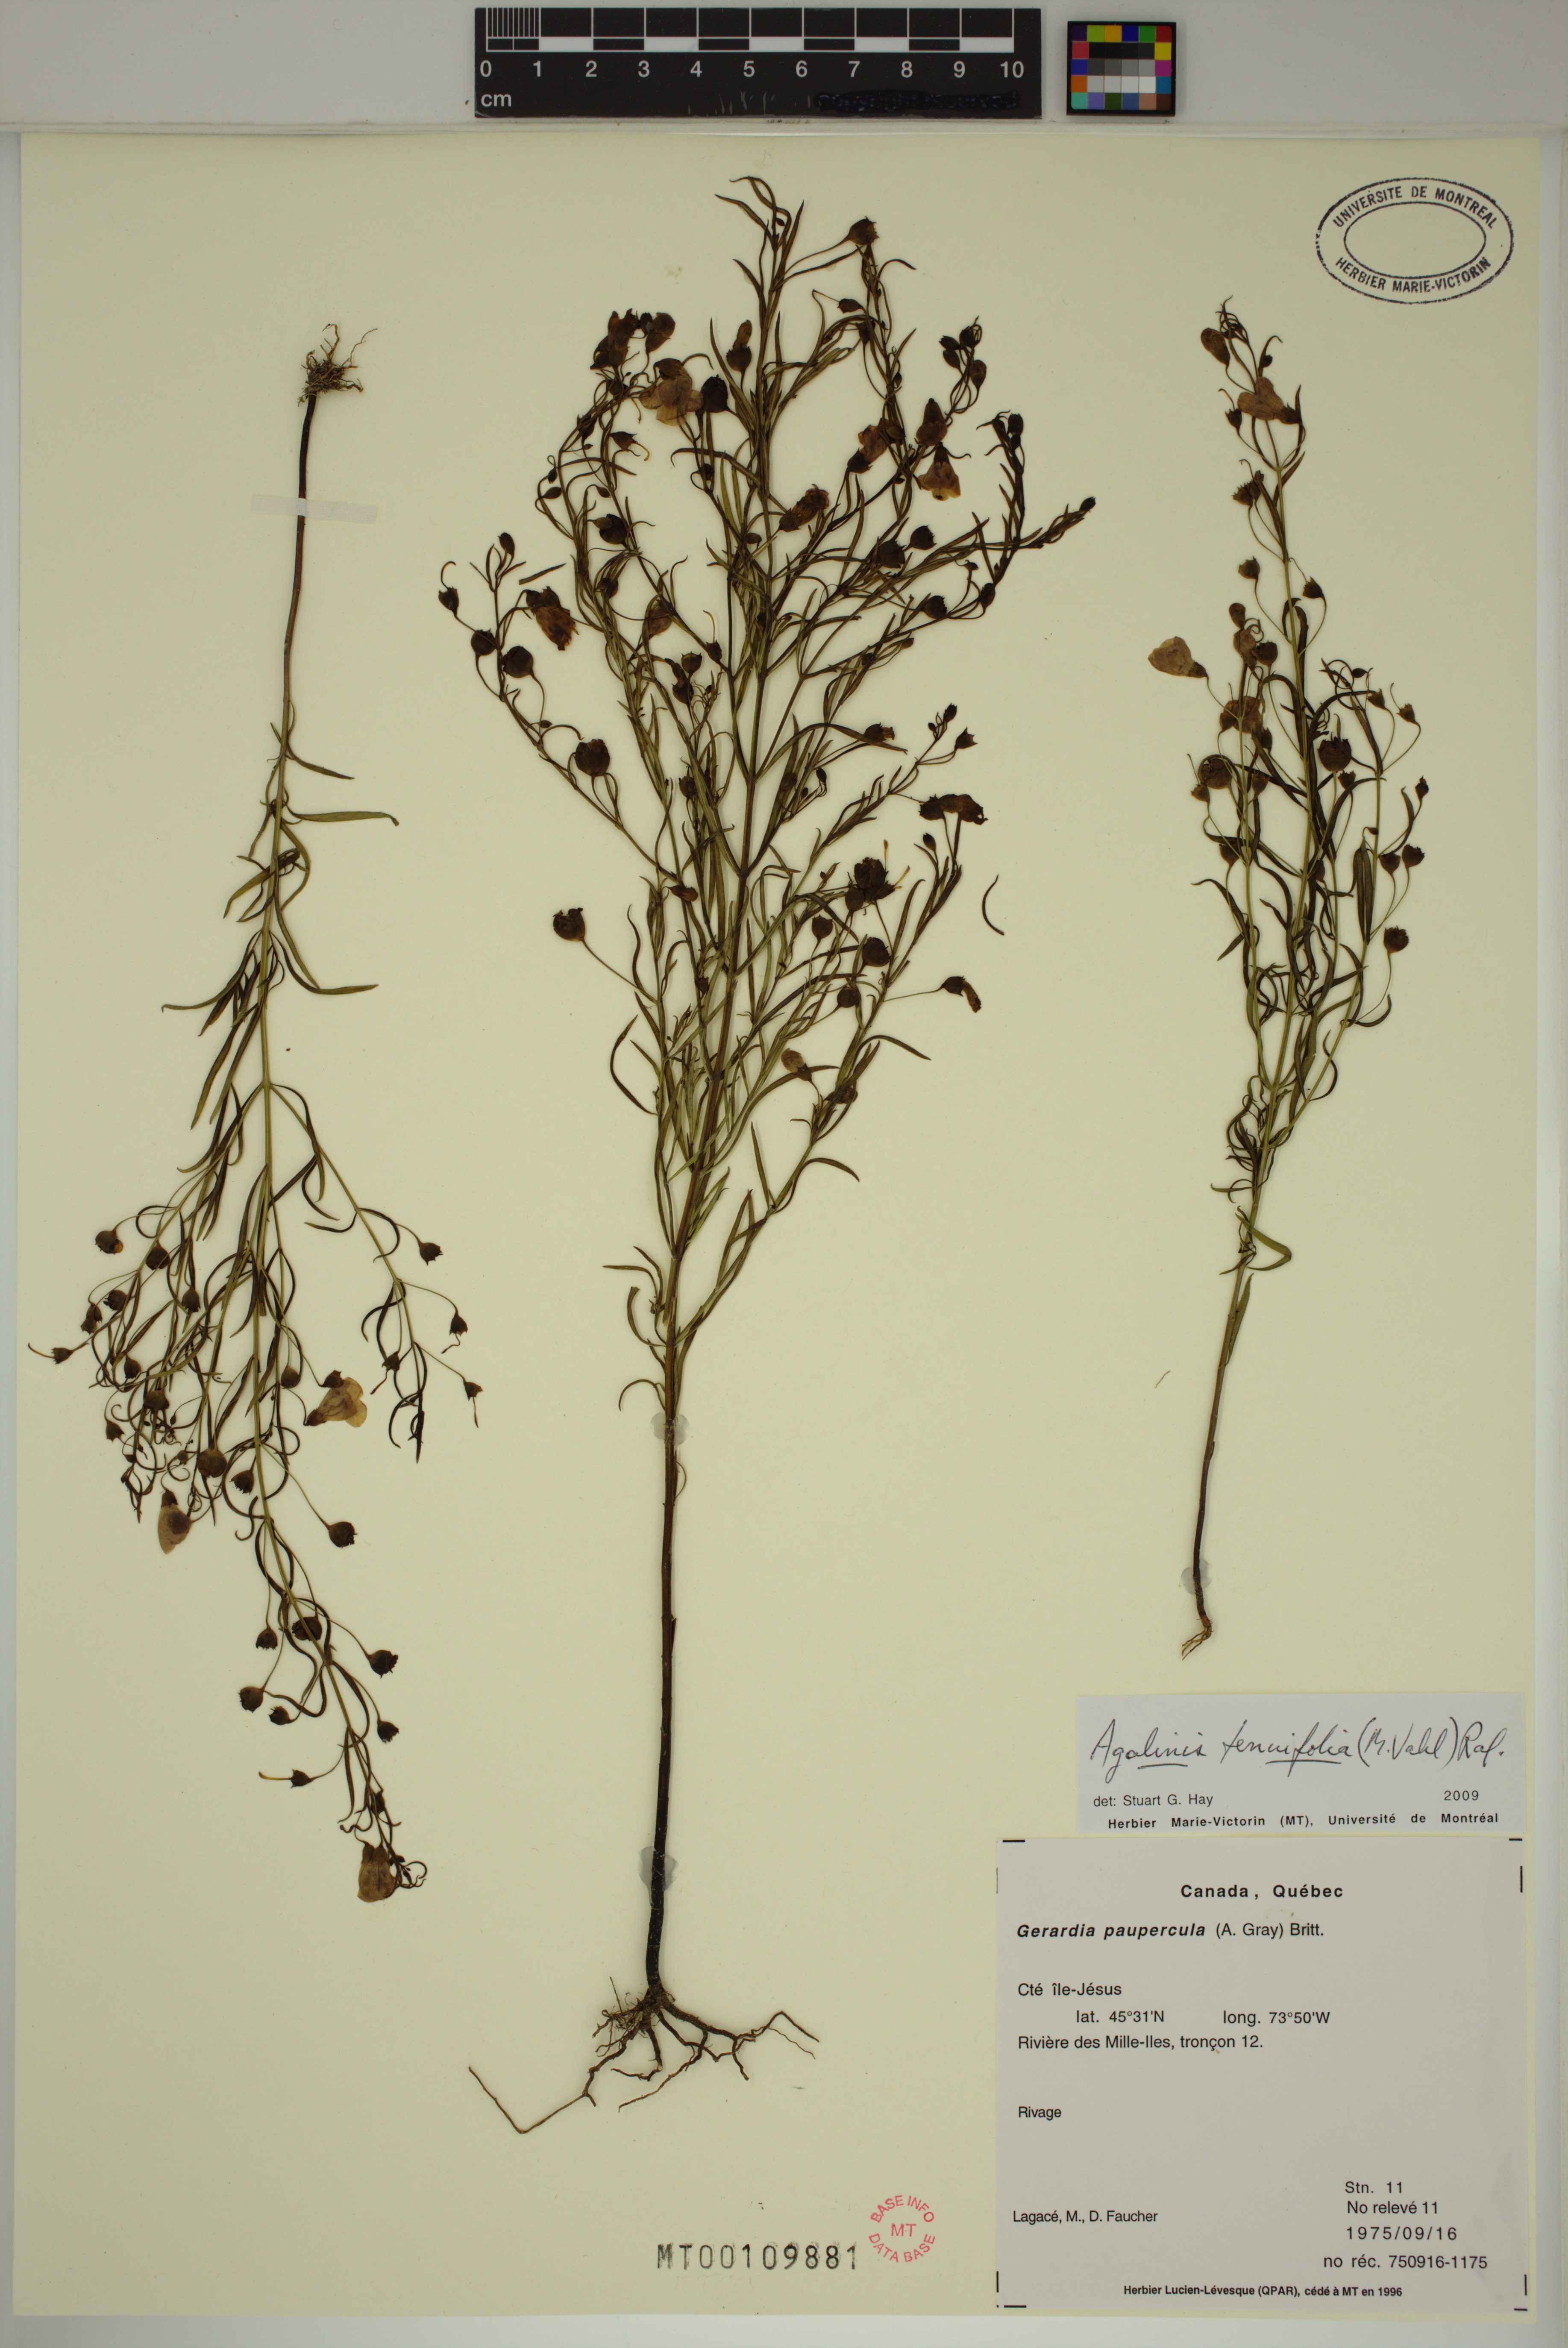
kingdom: Plantae
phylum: Tracheophyta
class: Magnoliopsida
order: Lamiales
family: Orobanchaceae
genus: Agalinis
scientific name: Agalinis tenuifolia
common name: Slender agalinis
